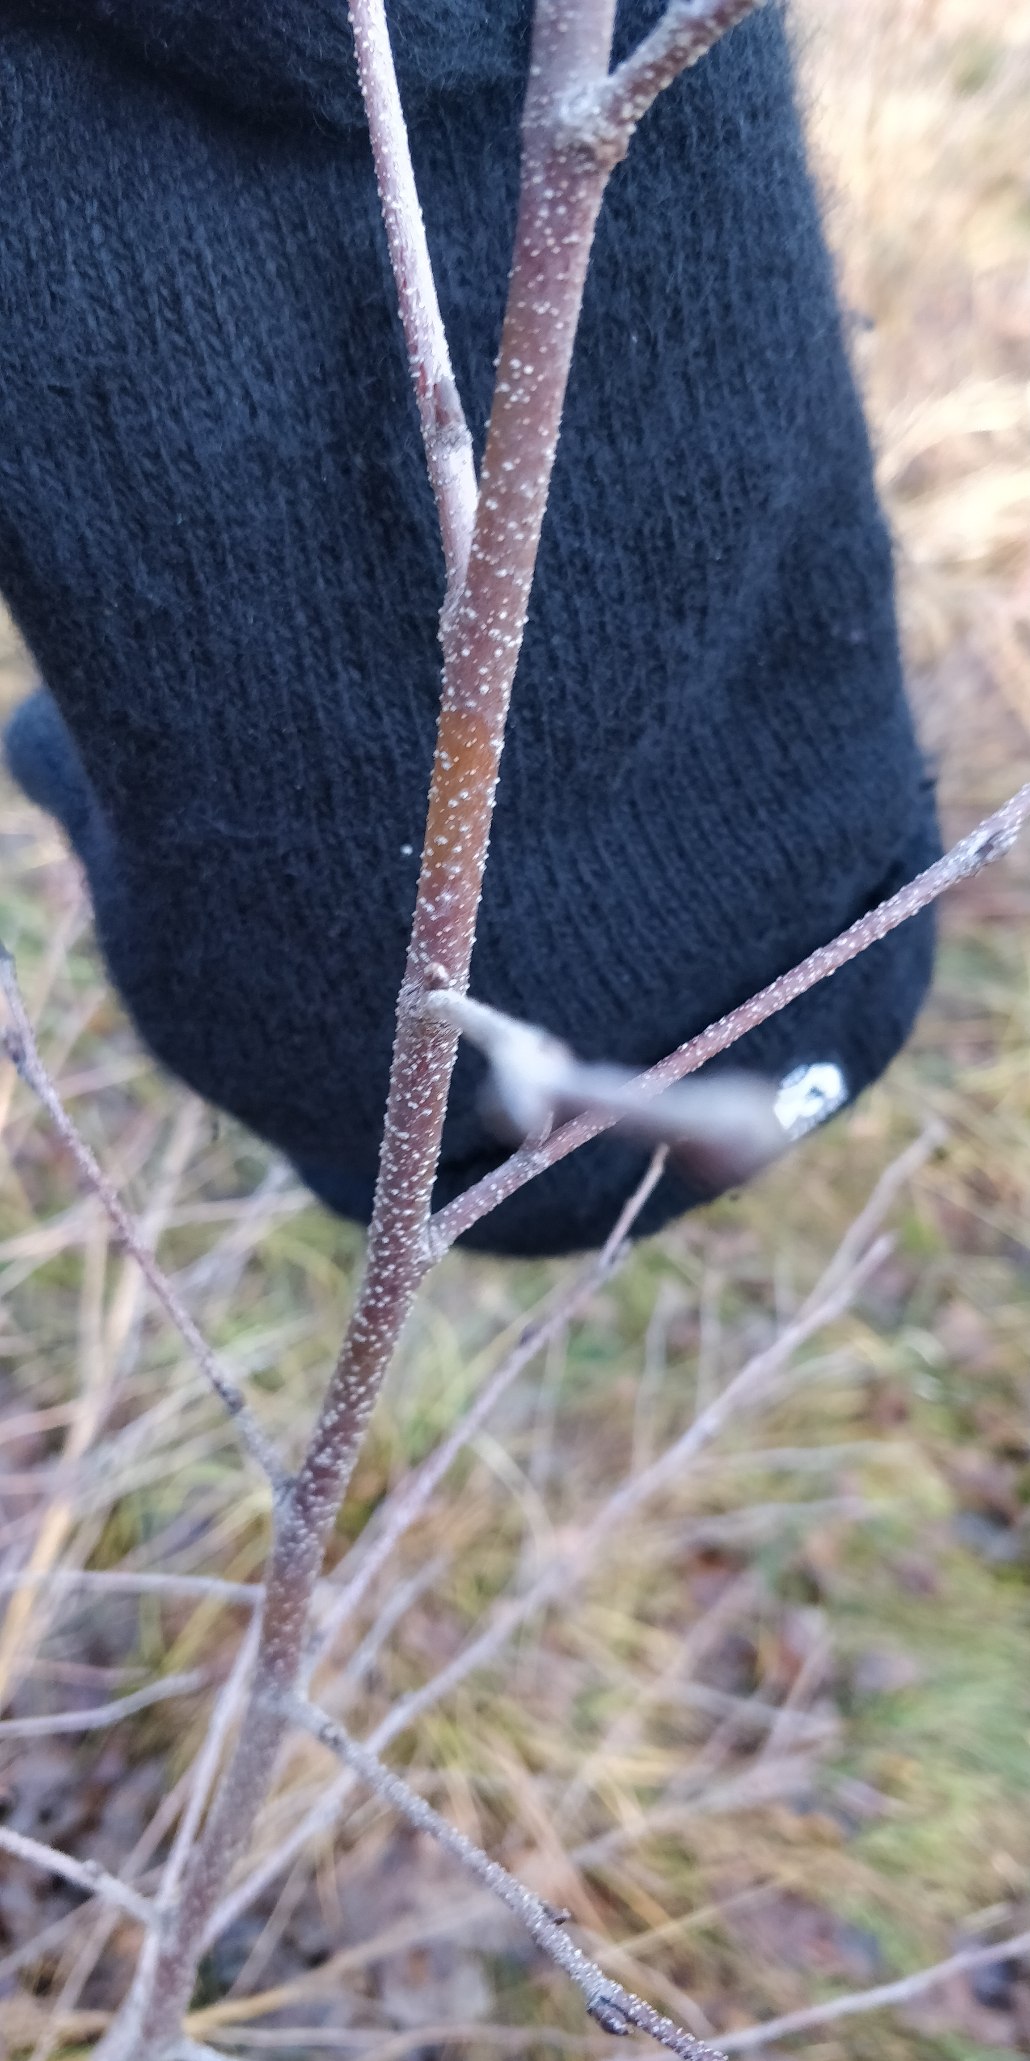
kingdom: Plantae
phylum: Tracheophyta
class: Magnoliopsida
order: Fagales
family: Betulaceae
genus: Betula
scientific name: Betula pendula
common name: Vorte-birk
